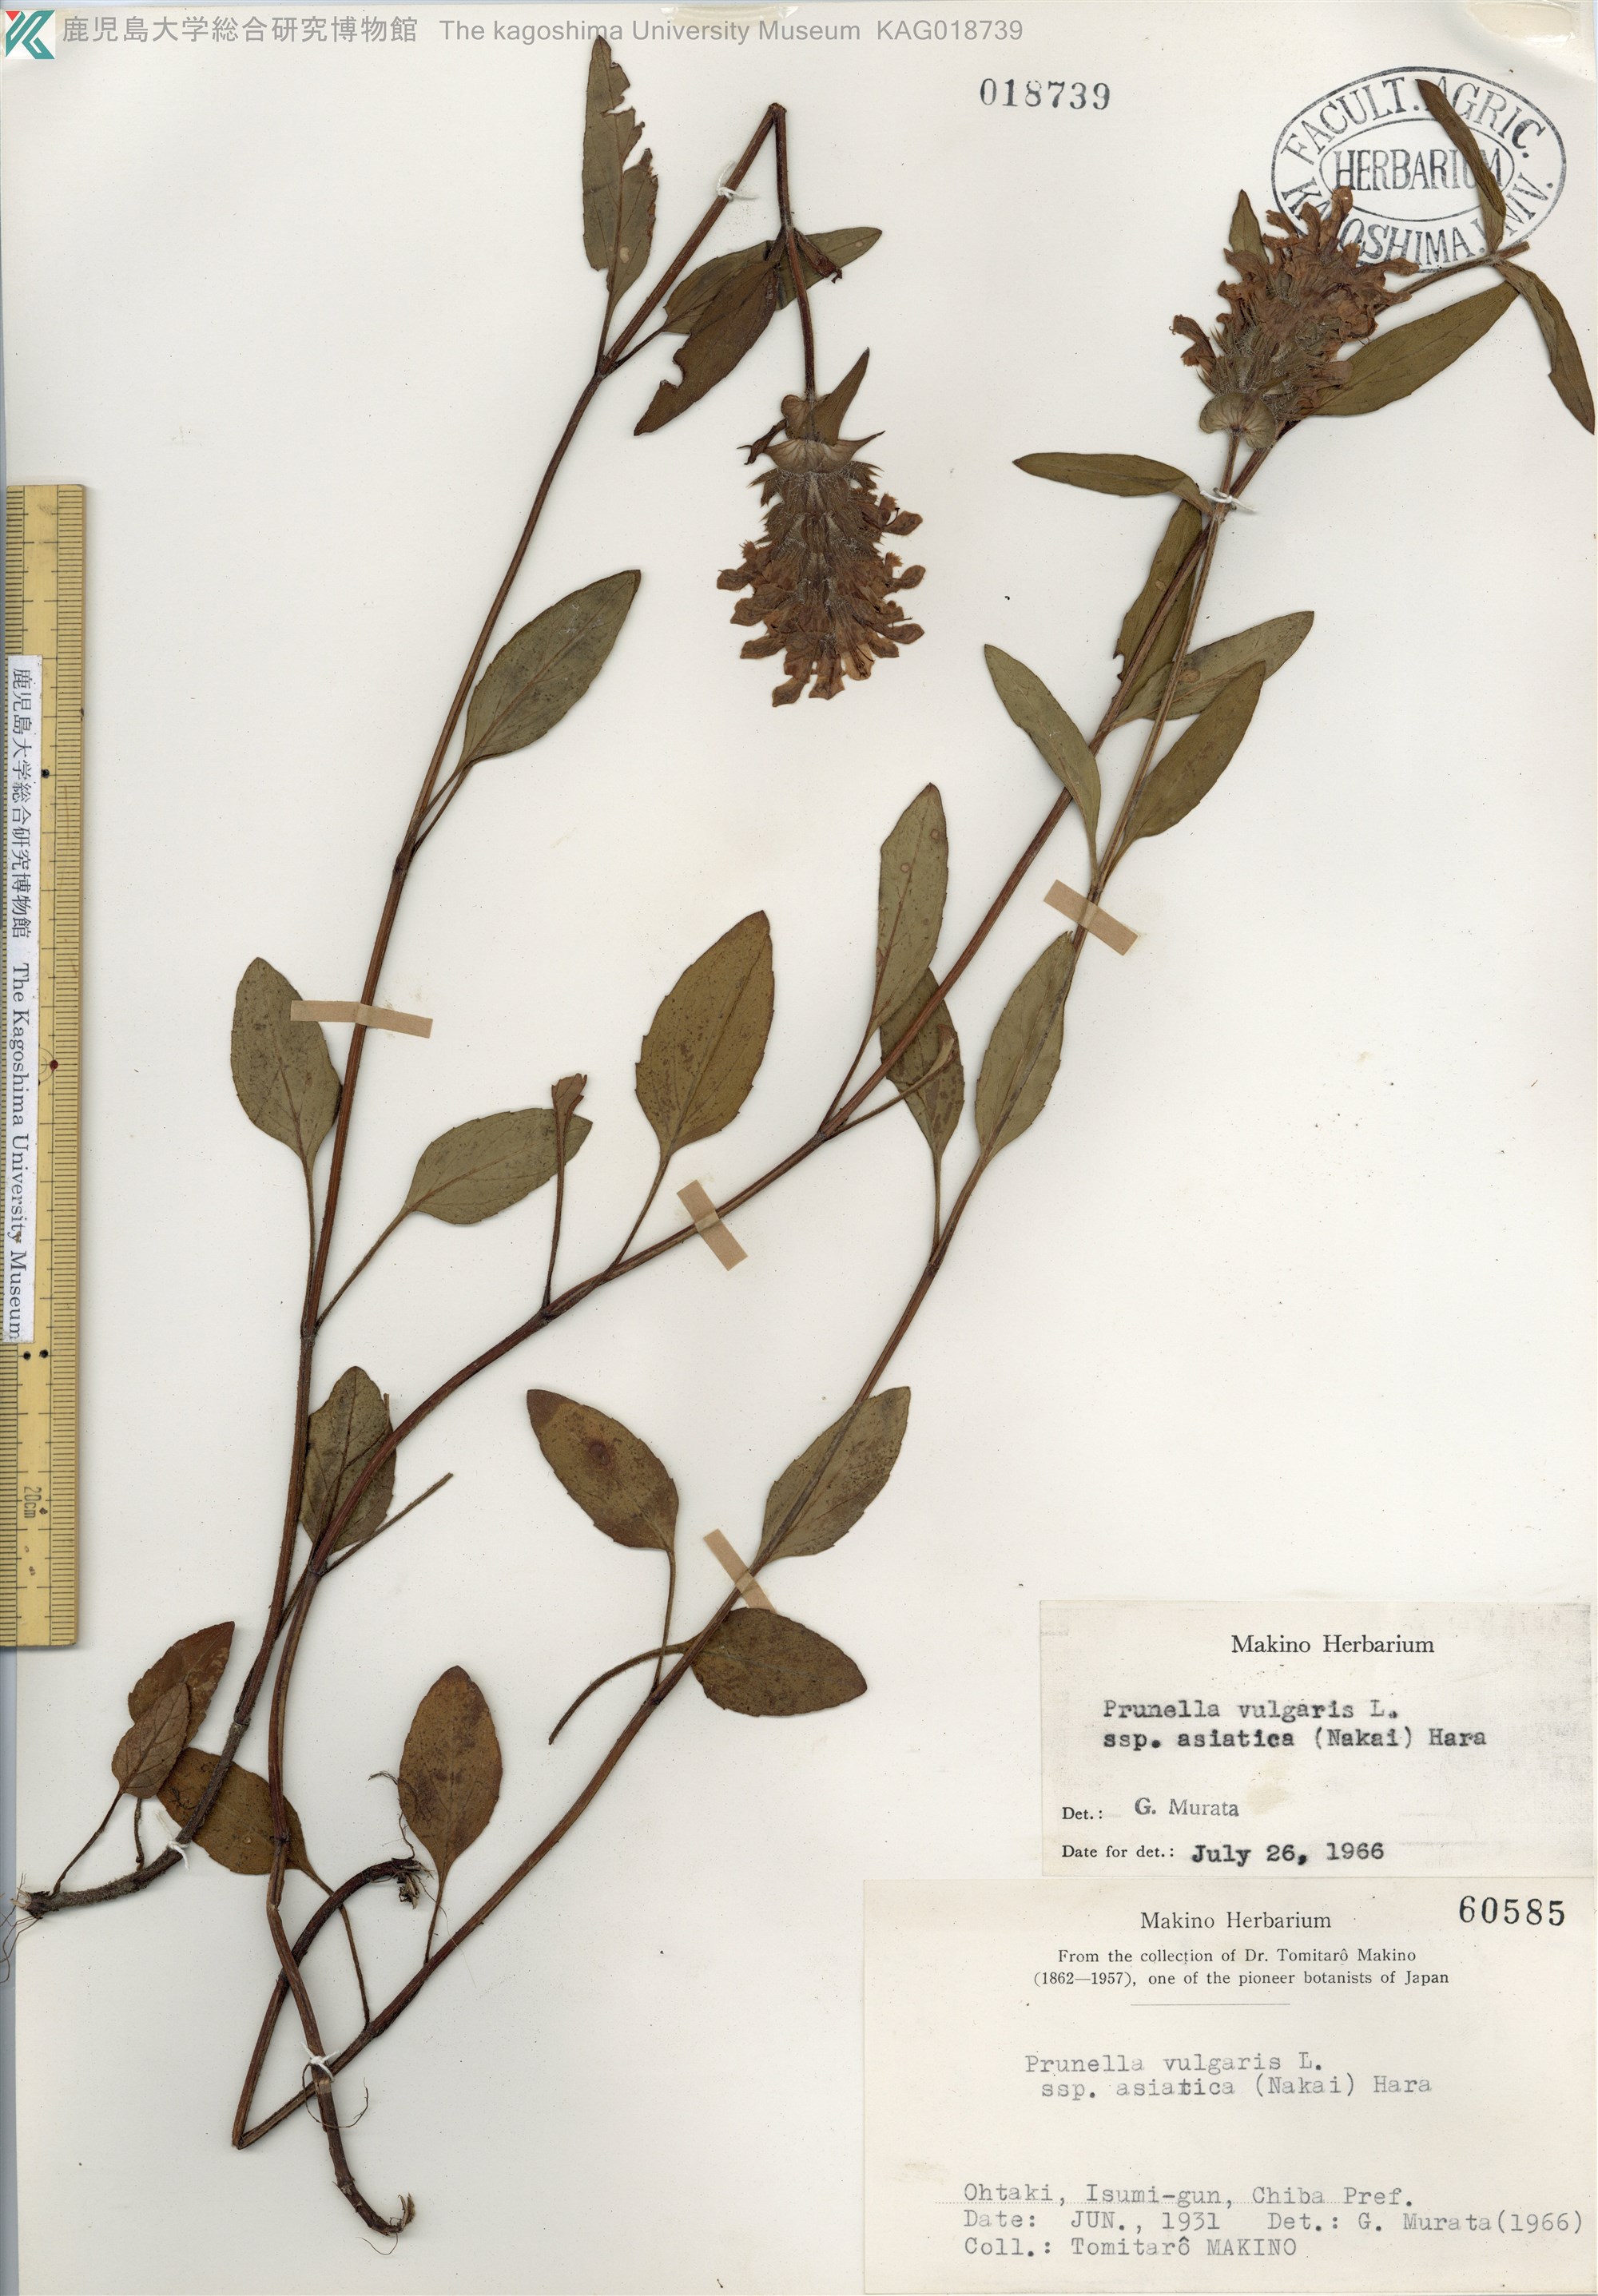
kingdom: Plantae
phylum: Tracheophyta
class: Magnoliopsida
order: Lamiales
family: Lamiaceae
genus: Prunella
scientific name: Prunella vulgaris
